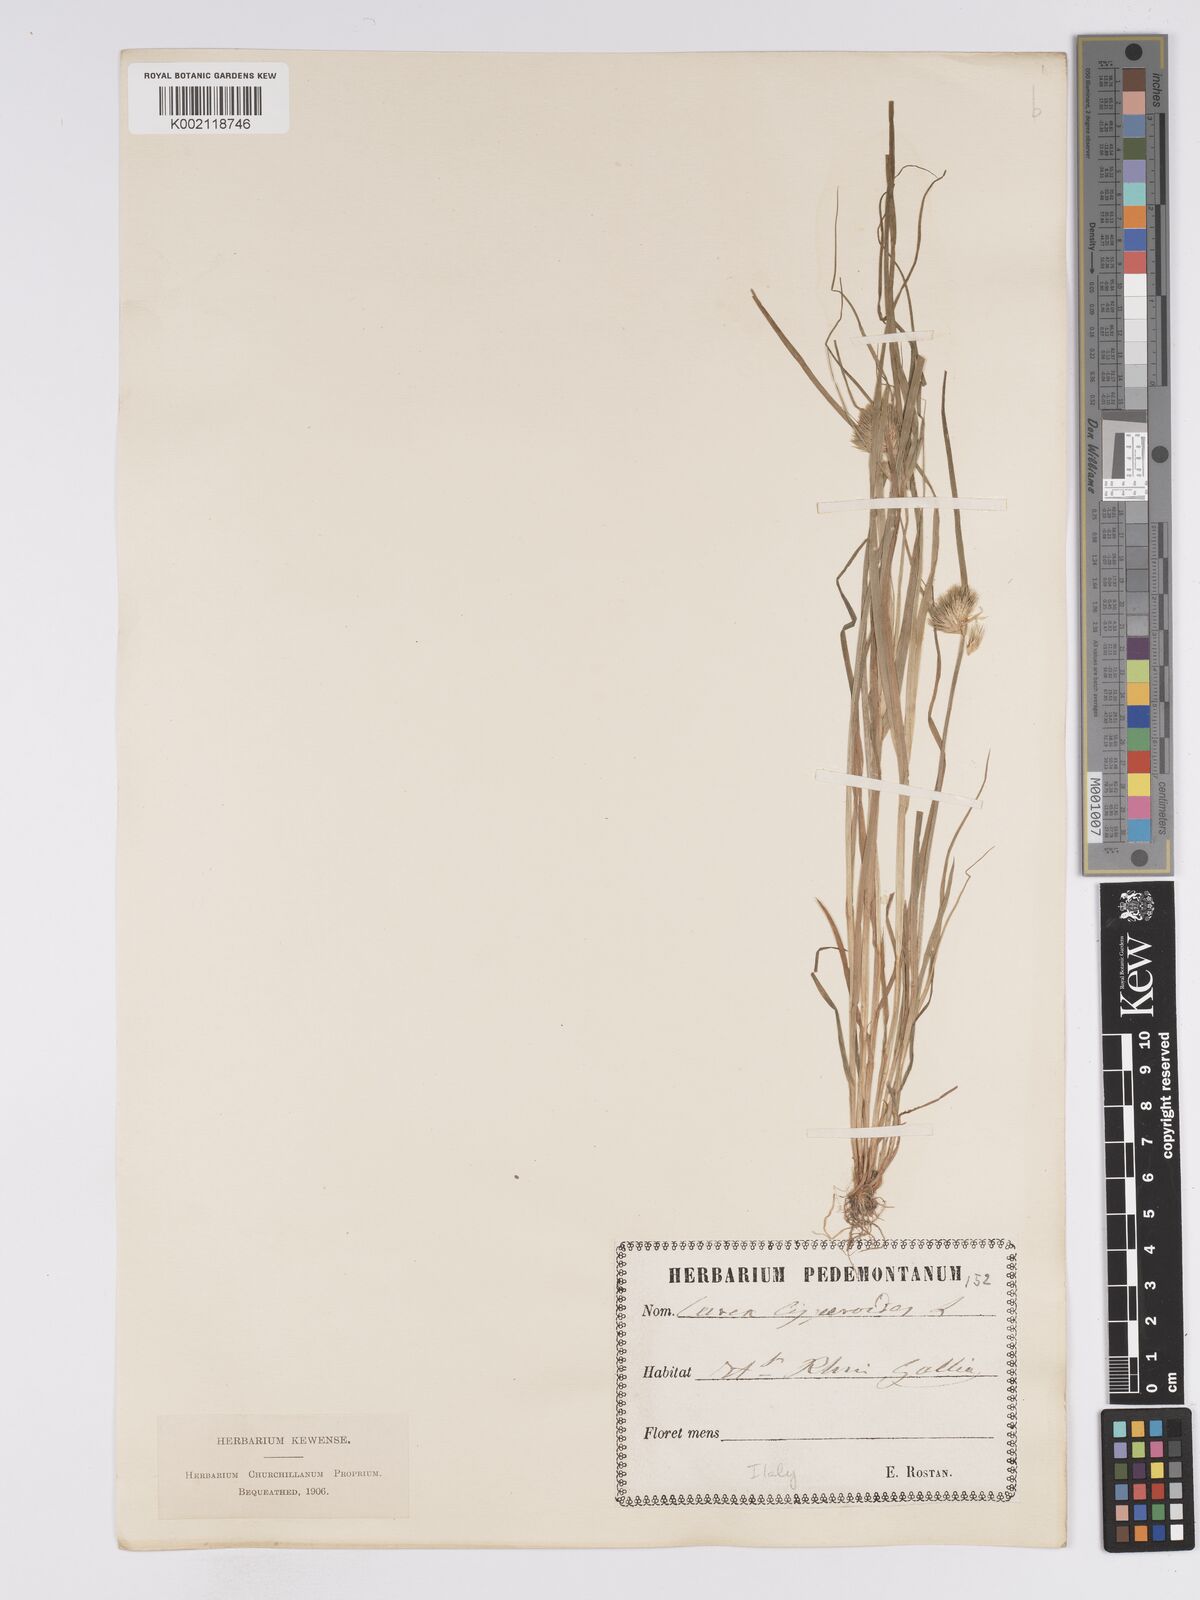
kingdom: Plantae
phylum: Tracheophyta
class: Liliopsida
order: Poales
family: Cyperaceae
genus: Carex
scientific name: Carex bohemica
